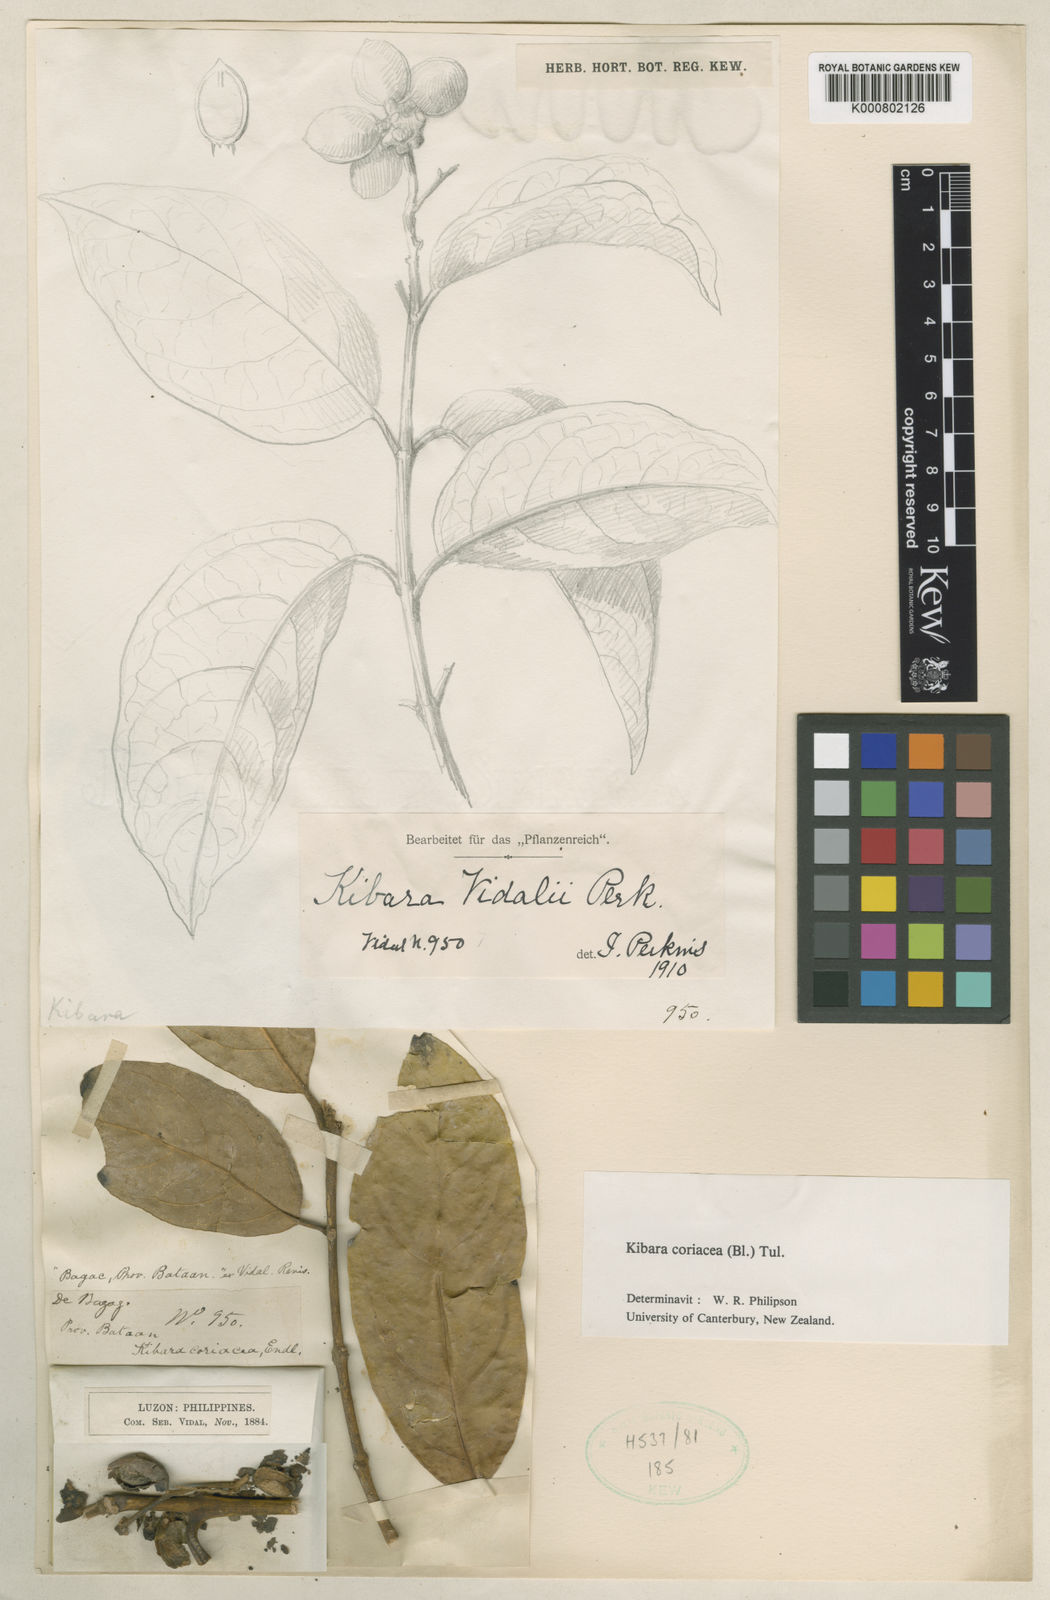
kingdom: Plantae
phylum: Tracheophyta
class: Magnoliopsida
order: Laurales
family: Monimiaceae
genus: Kibara
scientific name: Kibara coriacea
